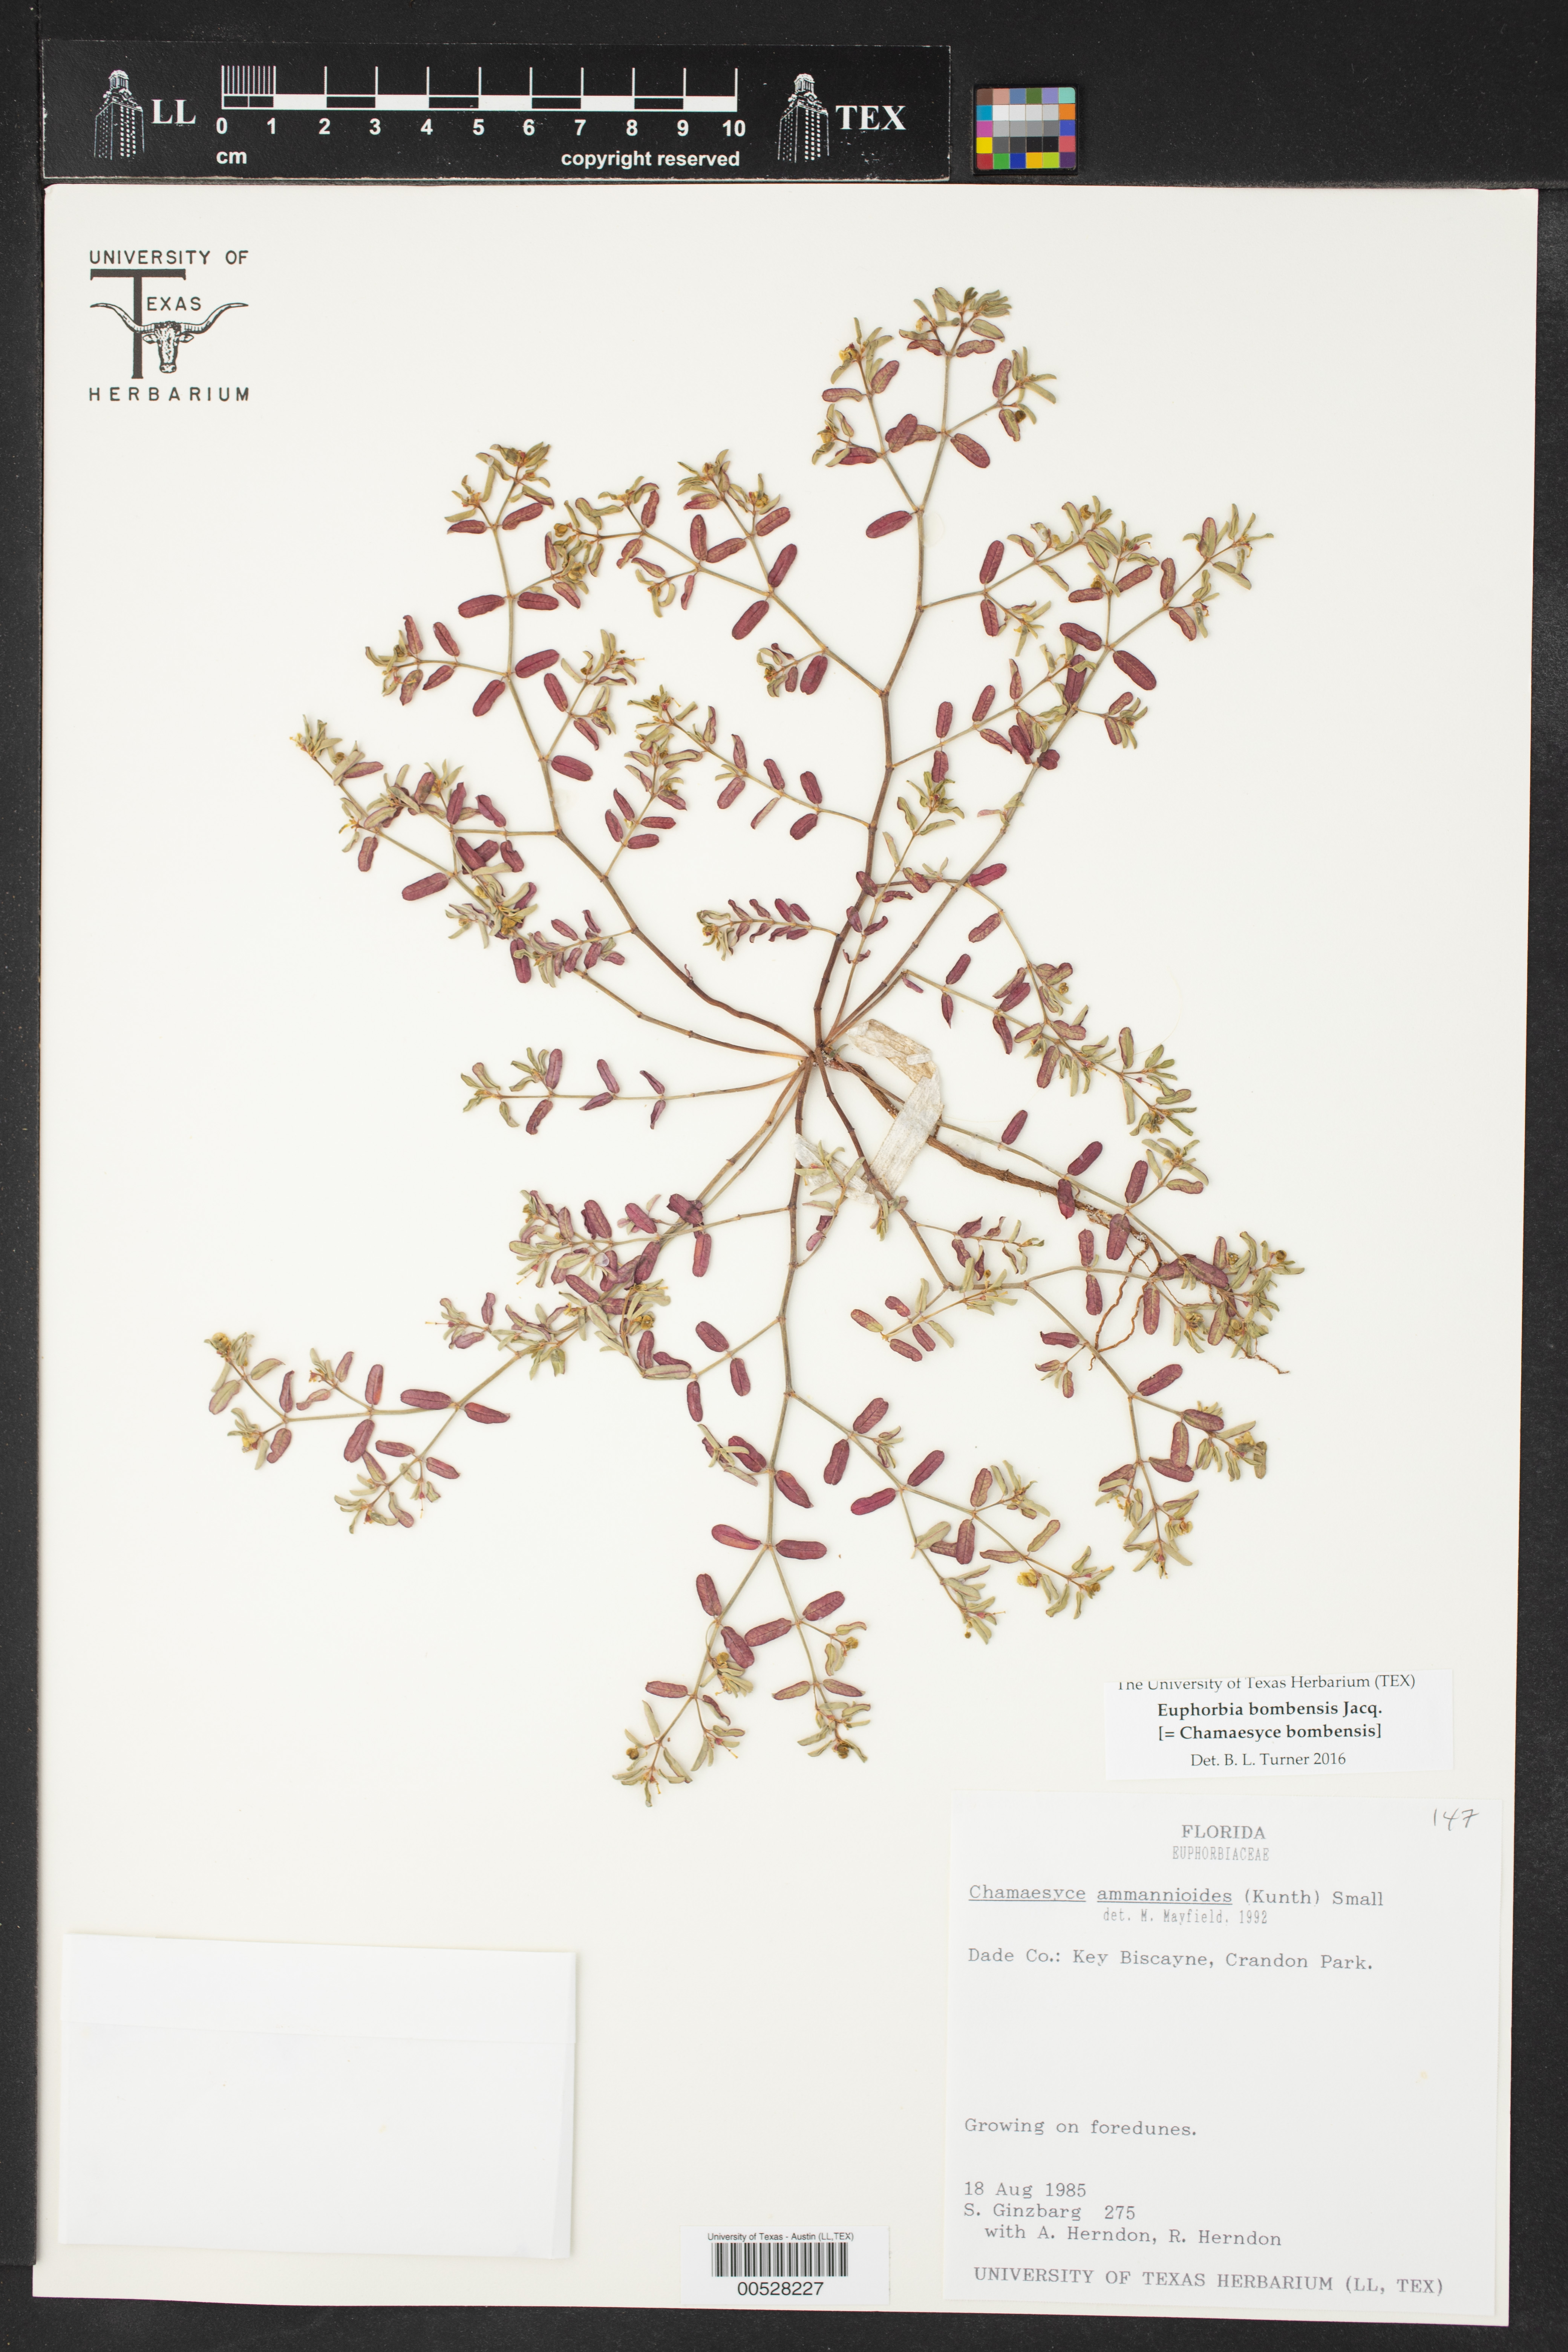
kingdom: Plantae
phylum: Tracheophyta
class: Magnoliopsida
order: Malpighiales
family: Euphorbiaceae
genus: Euphorbia
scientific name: Euphorbia bombensis
